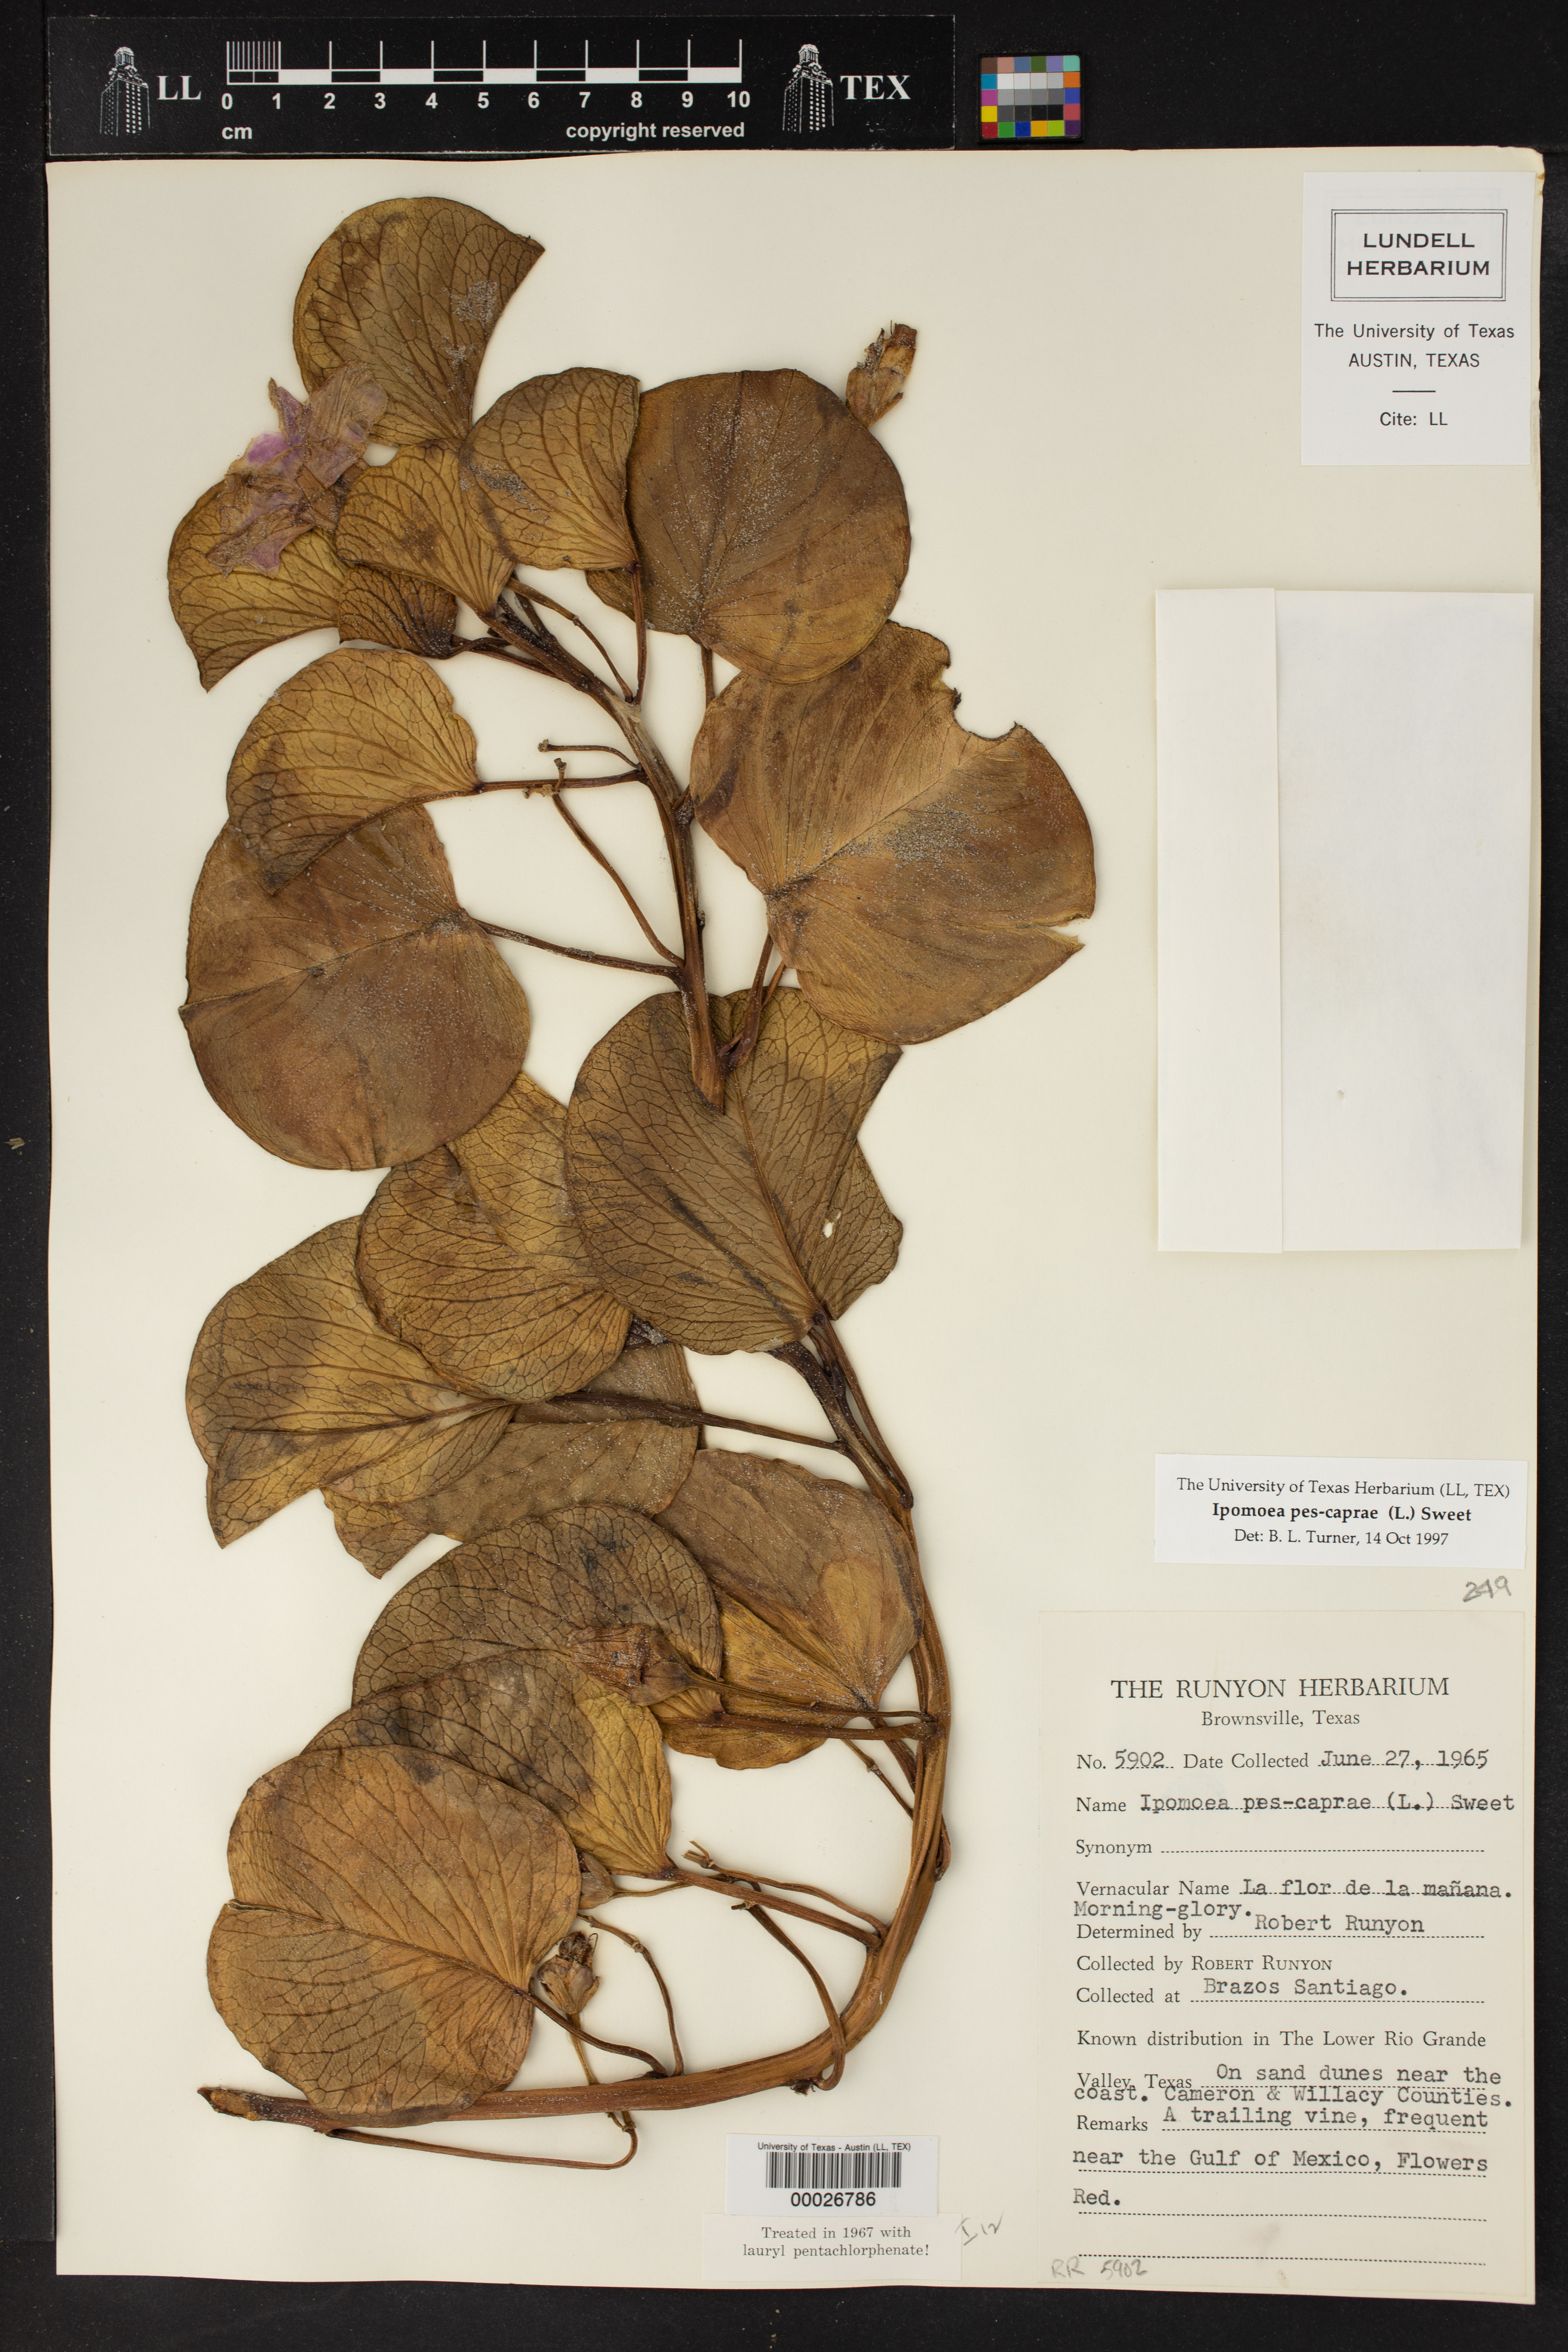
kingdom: Plantae
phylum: Tracheophyta
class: Magnoliopsida
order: Solanales
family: Convolvulaceae
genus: Ipomoea
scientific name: Ipomoea pes-caprae
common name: Beach morning glory
